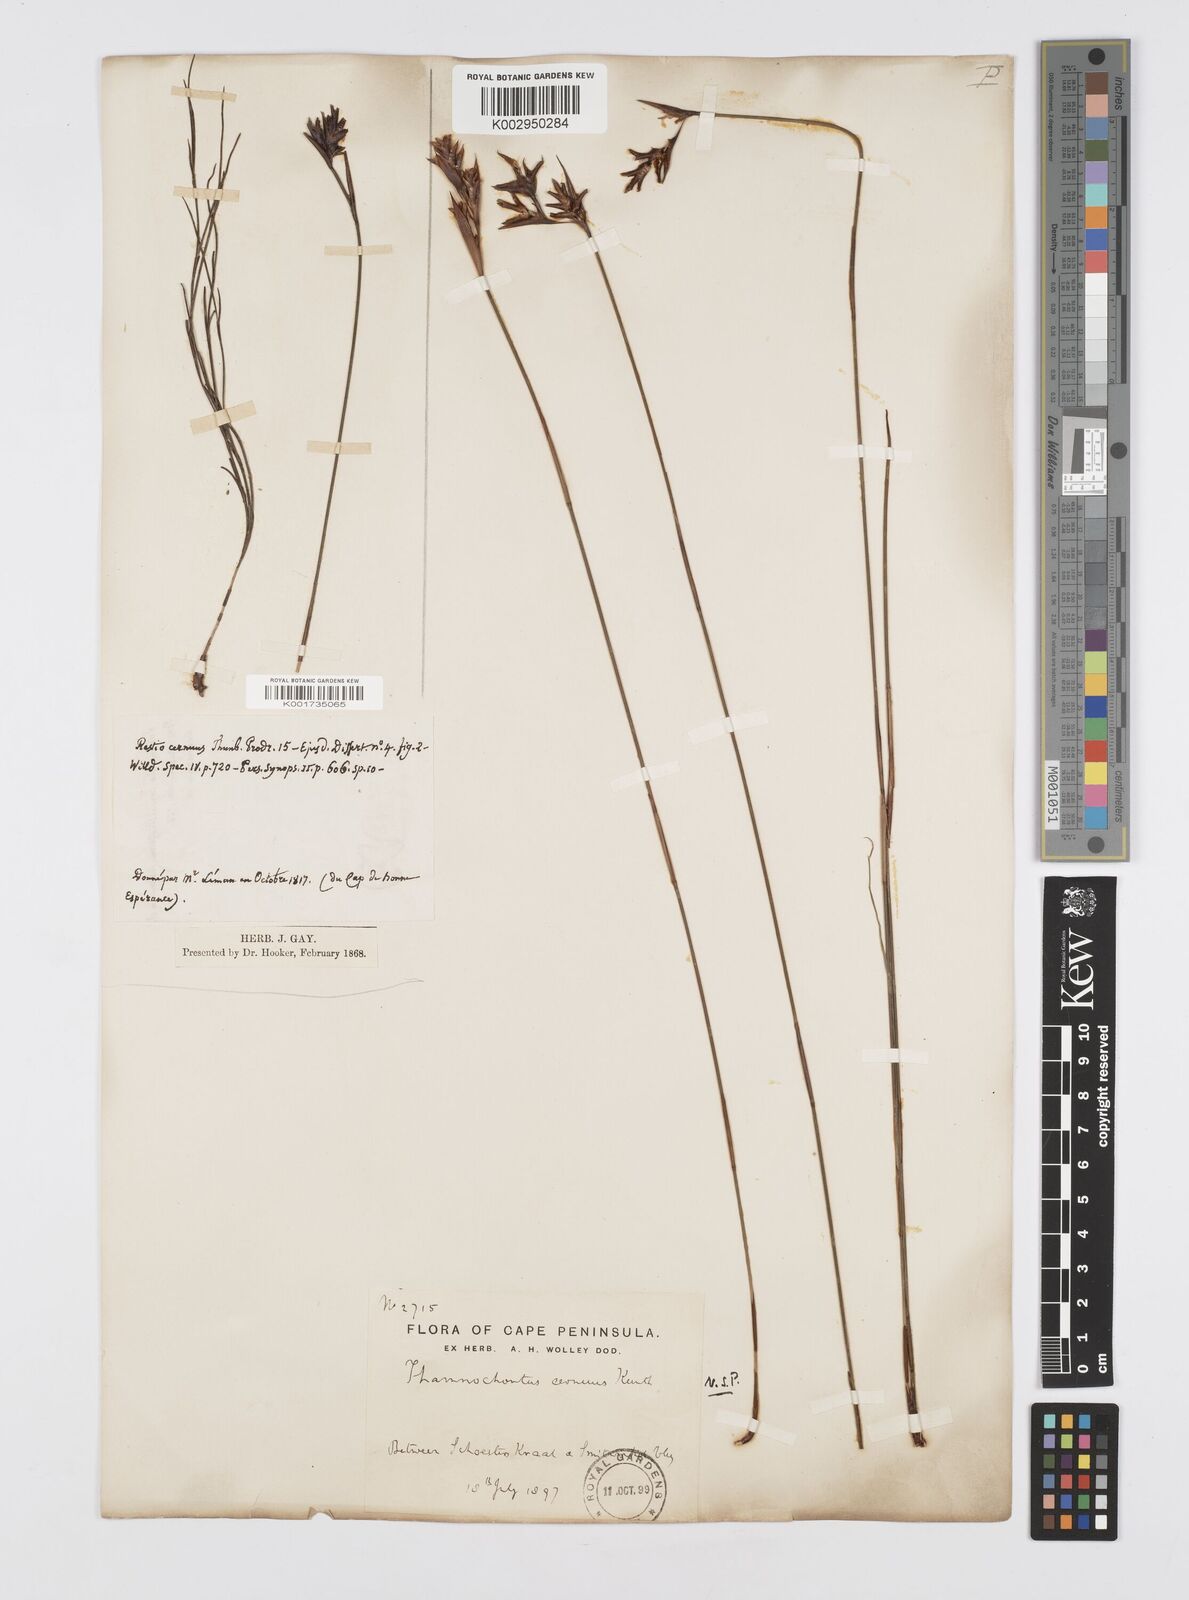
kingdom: Plantae
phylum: Tracheophyta
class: Liliopsida
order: Poales
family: Restionaceae
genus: Staberoha
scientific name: Staberoha cernua
